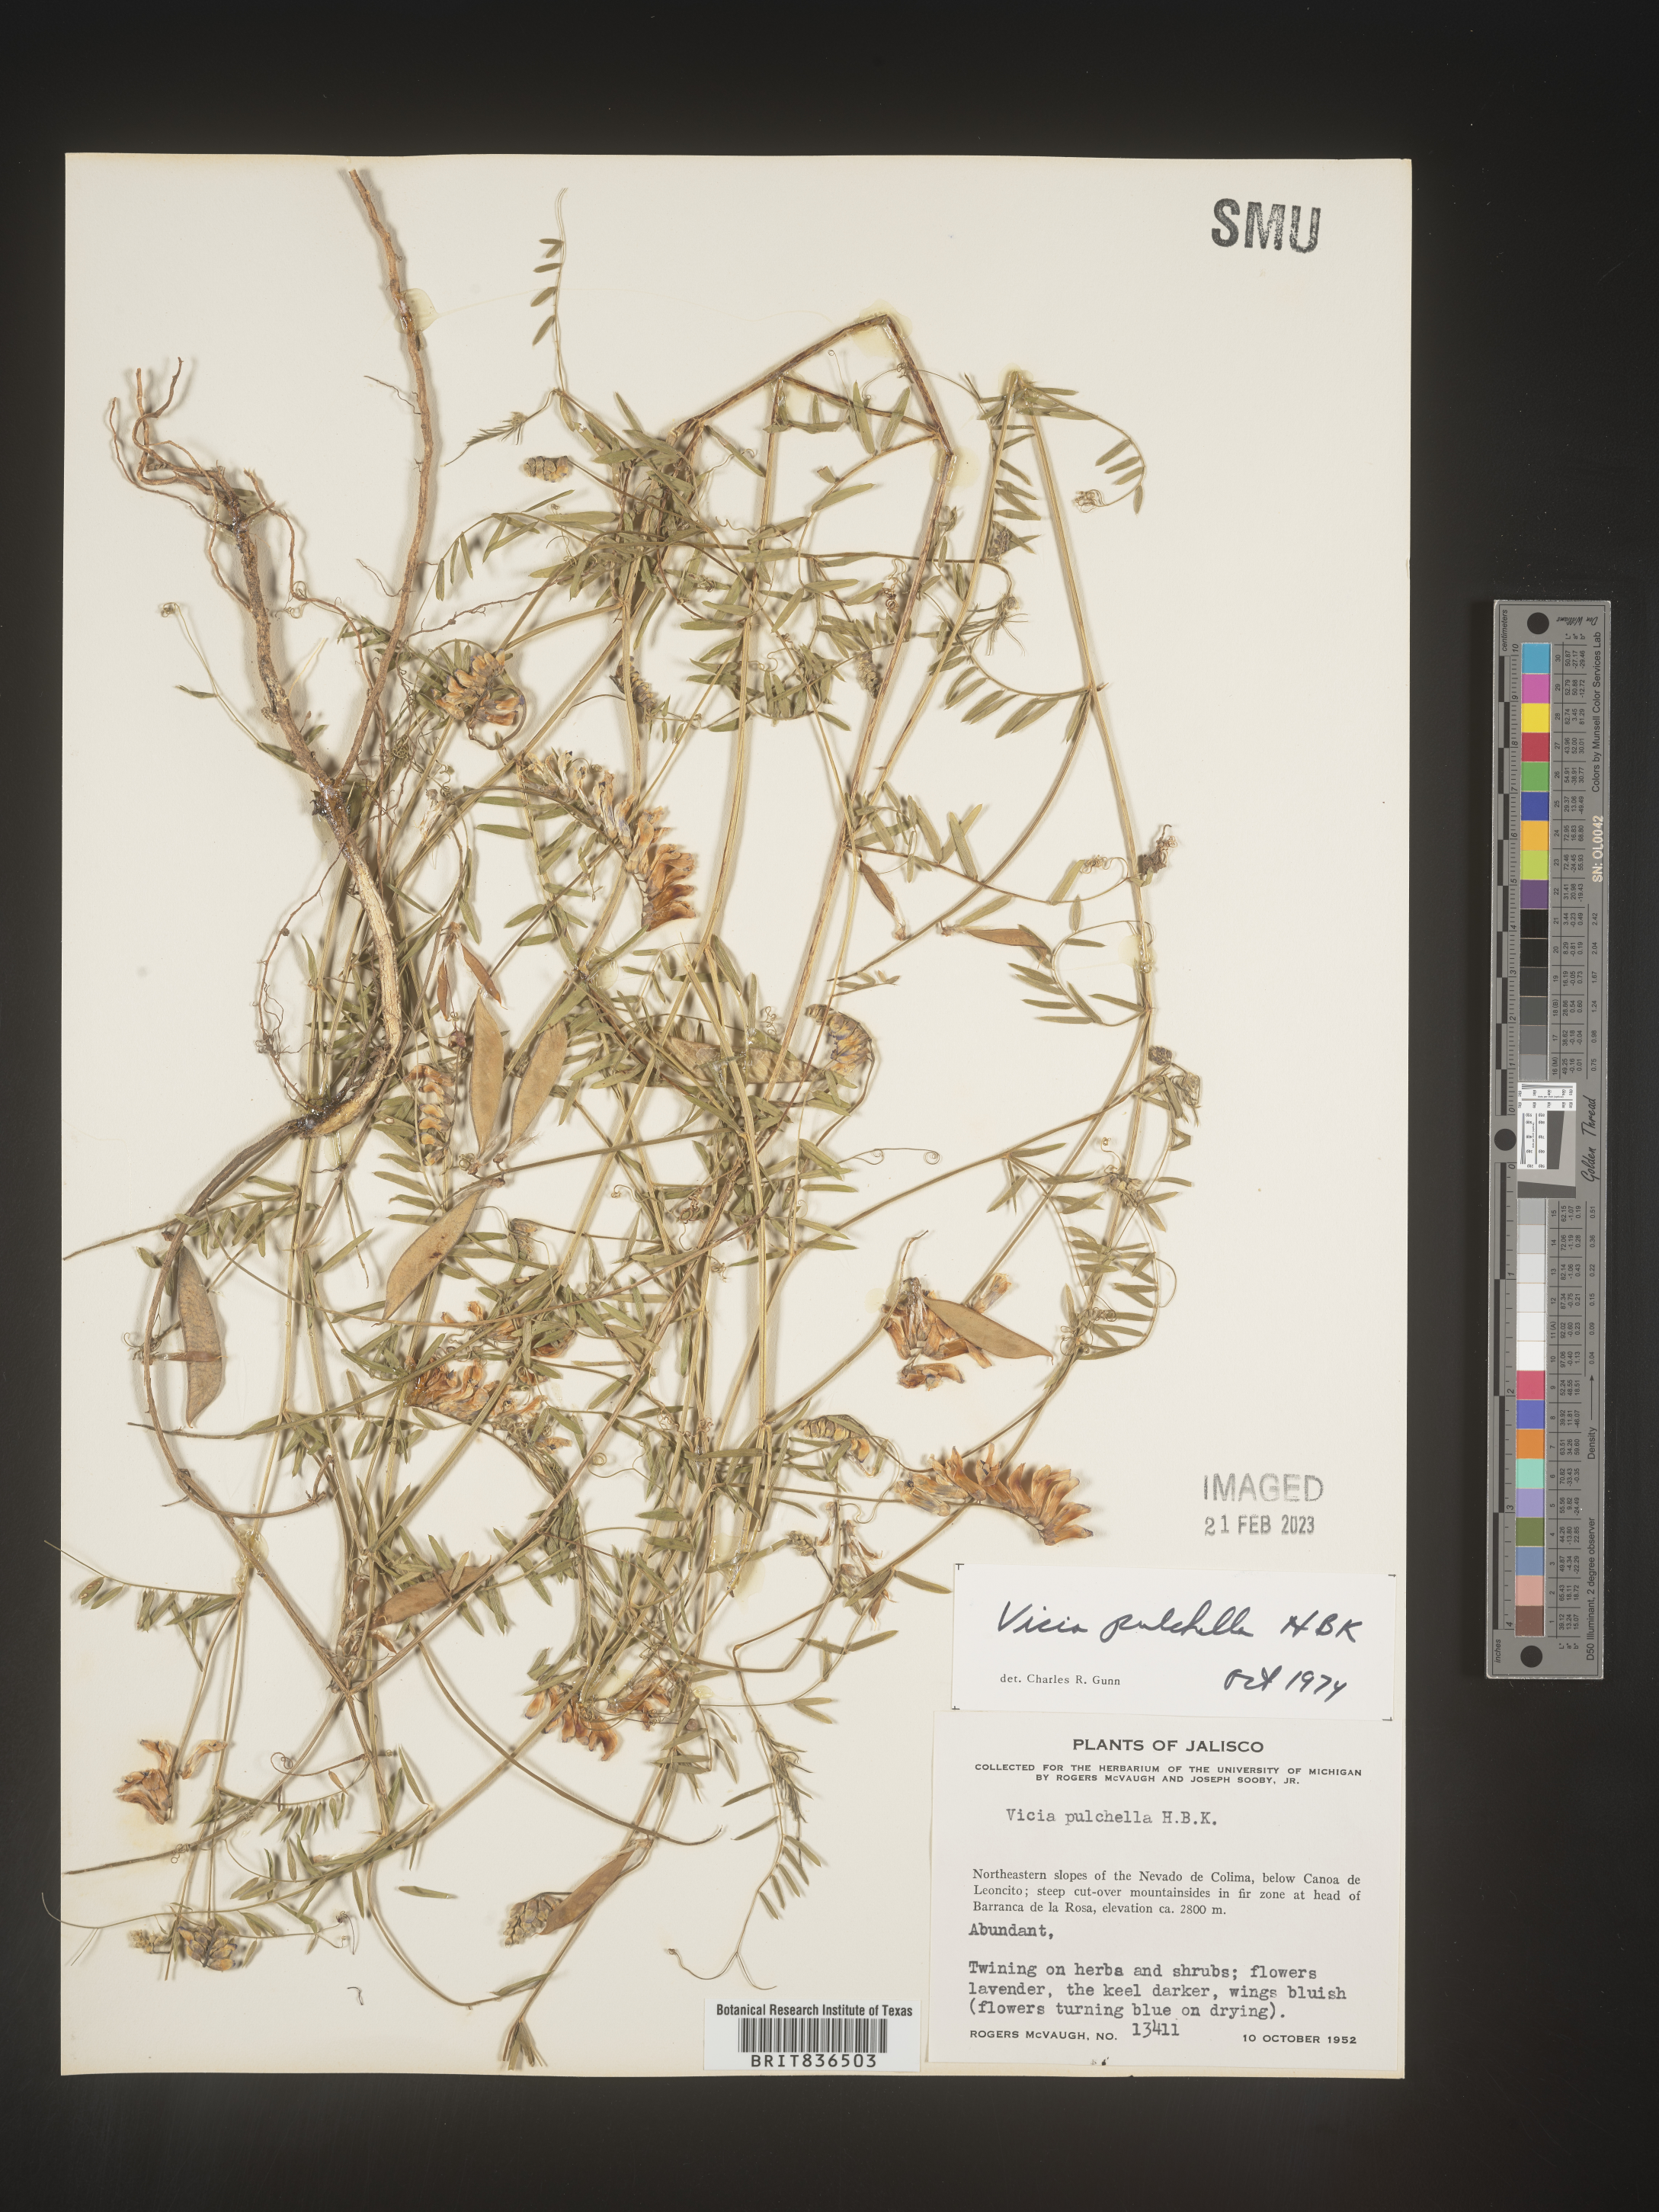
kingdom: Plantae
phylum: Tracheophyta
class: Magnoliopsida
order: Fabales
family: Fabaceae
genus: Vicia
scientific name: Vicia
